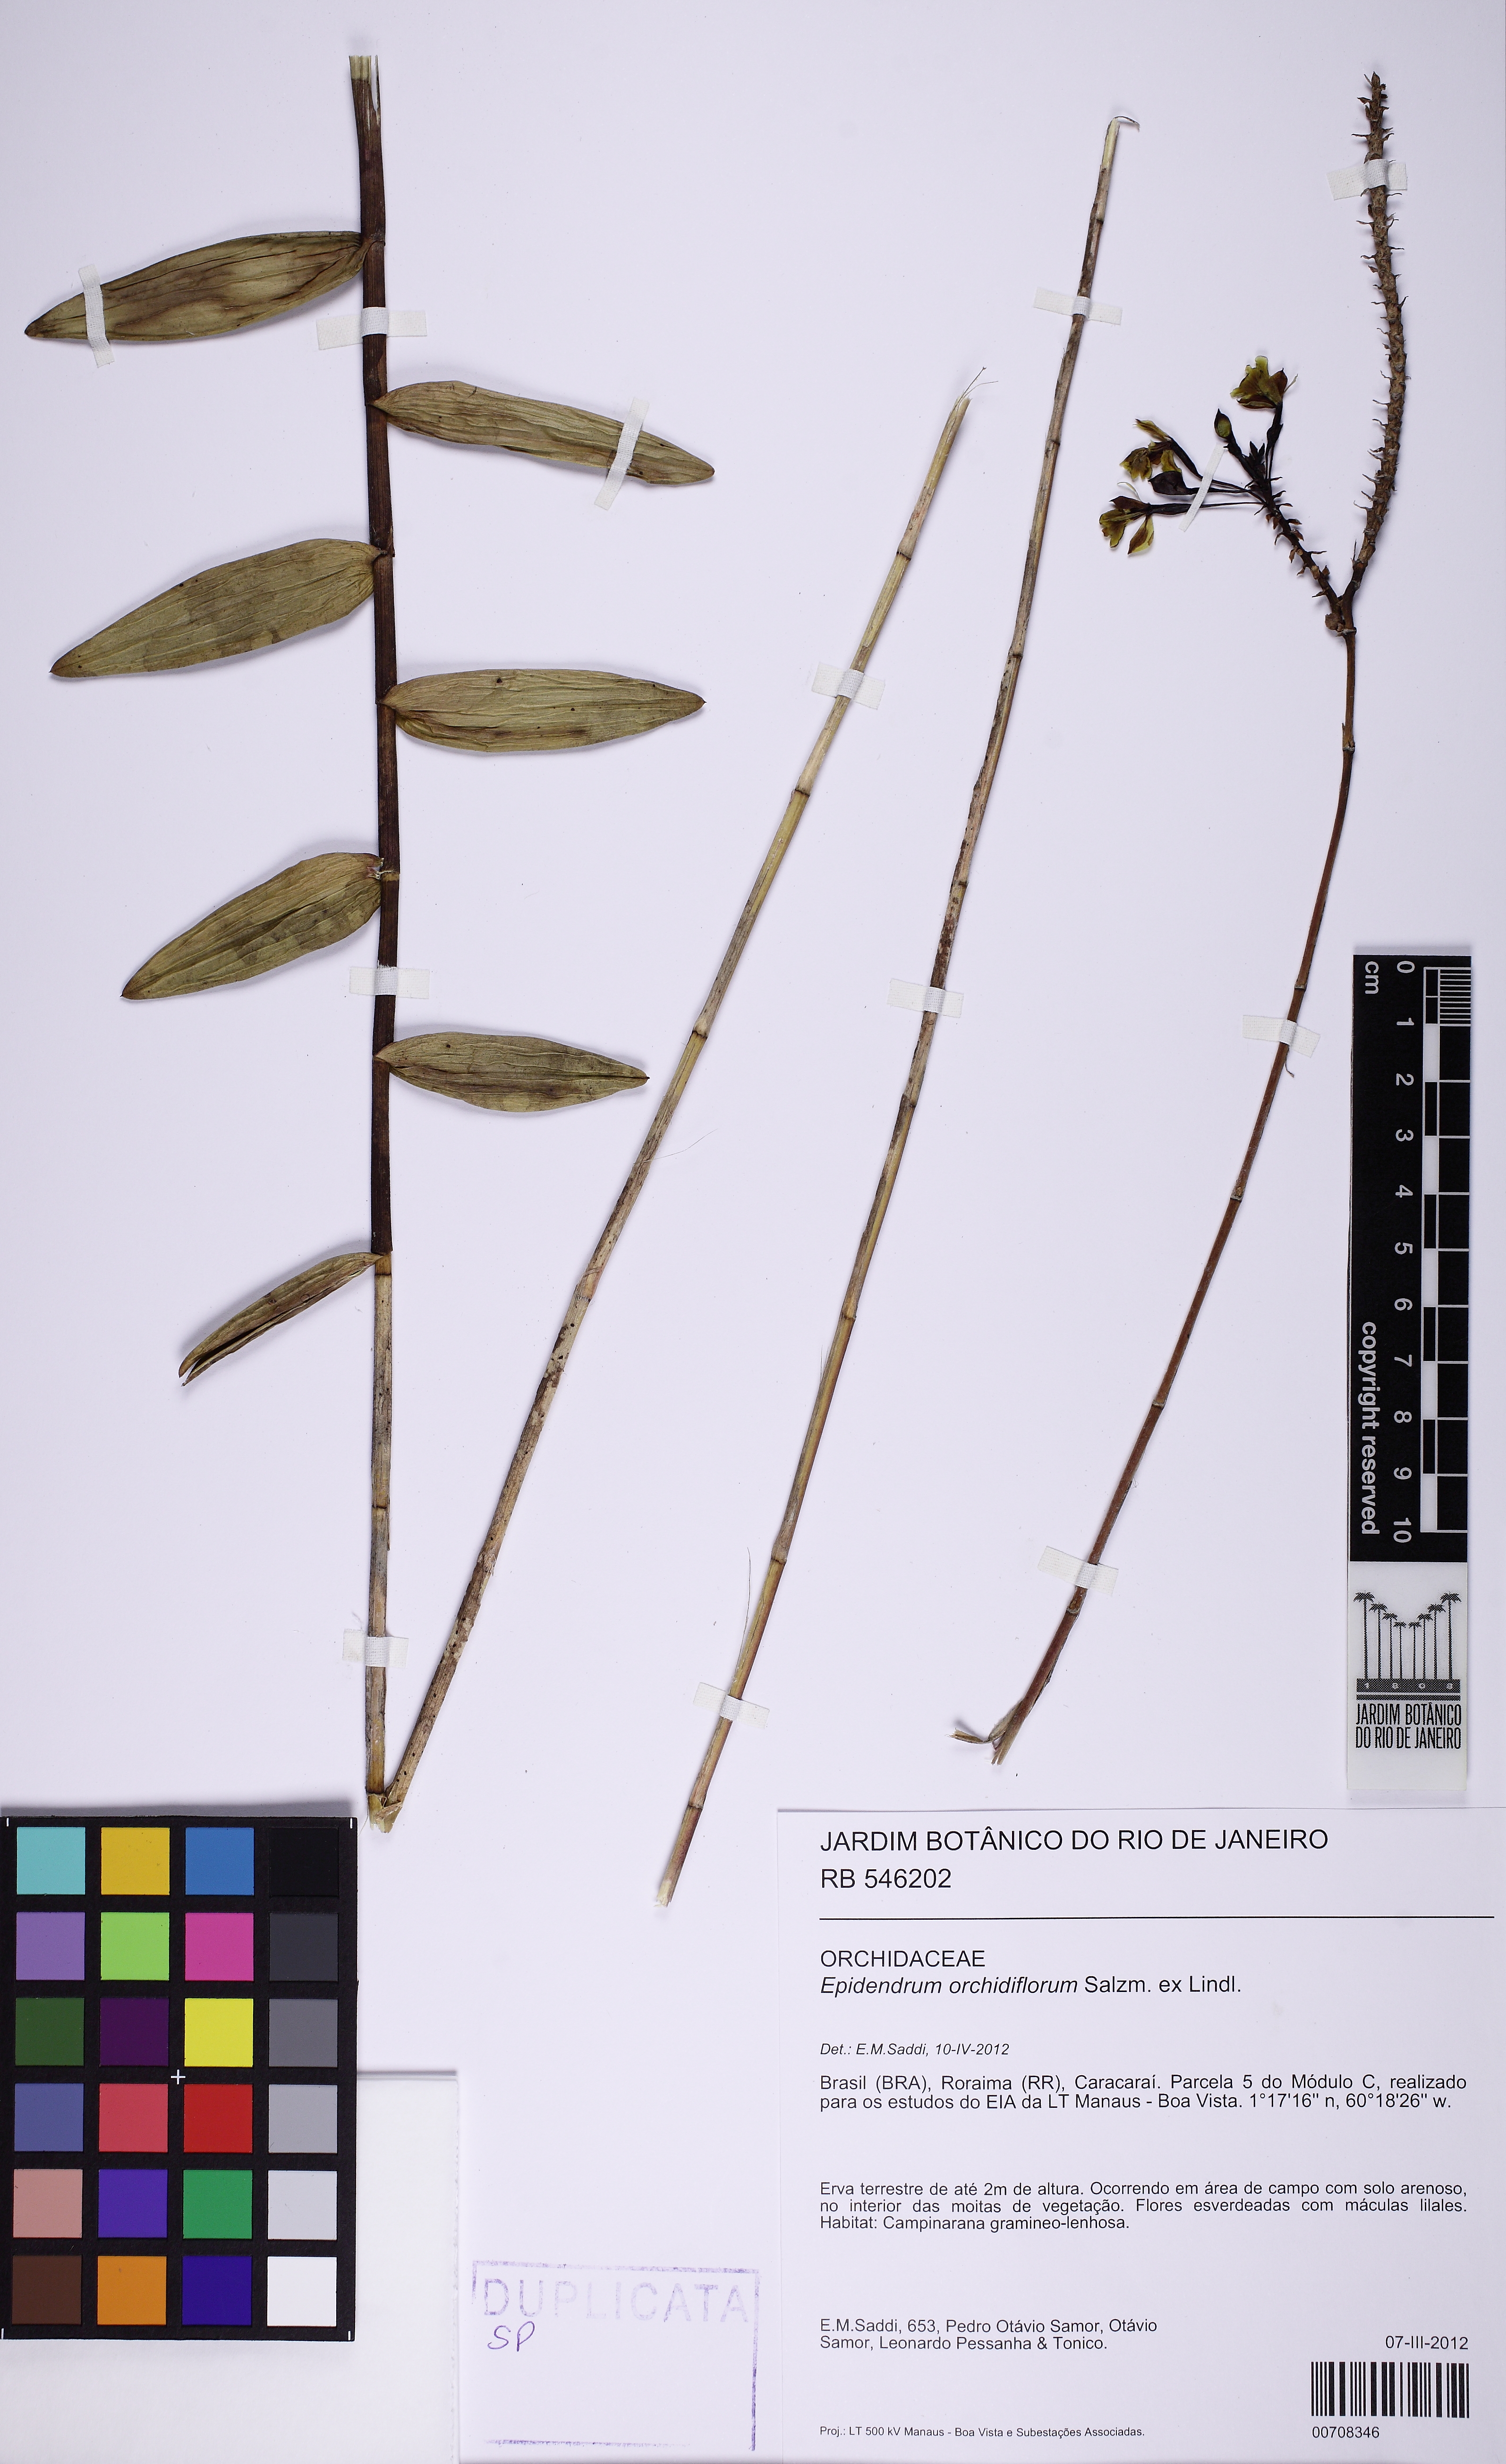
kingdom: Plantae
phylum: Tracheophyta
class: Liliopsida
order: Asparagales
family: Orchidaceae
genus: Epidendrum
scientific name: Epidendrum orchidiflorum
